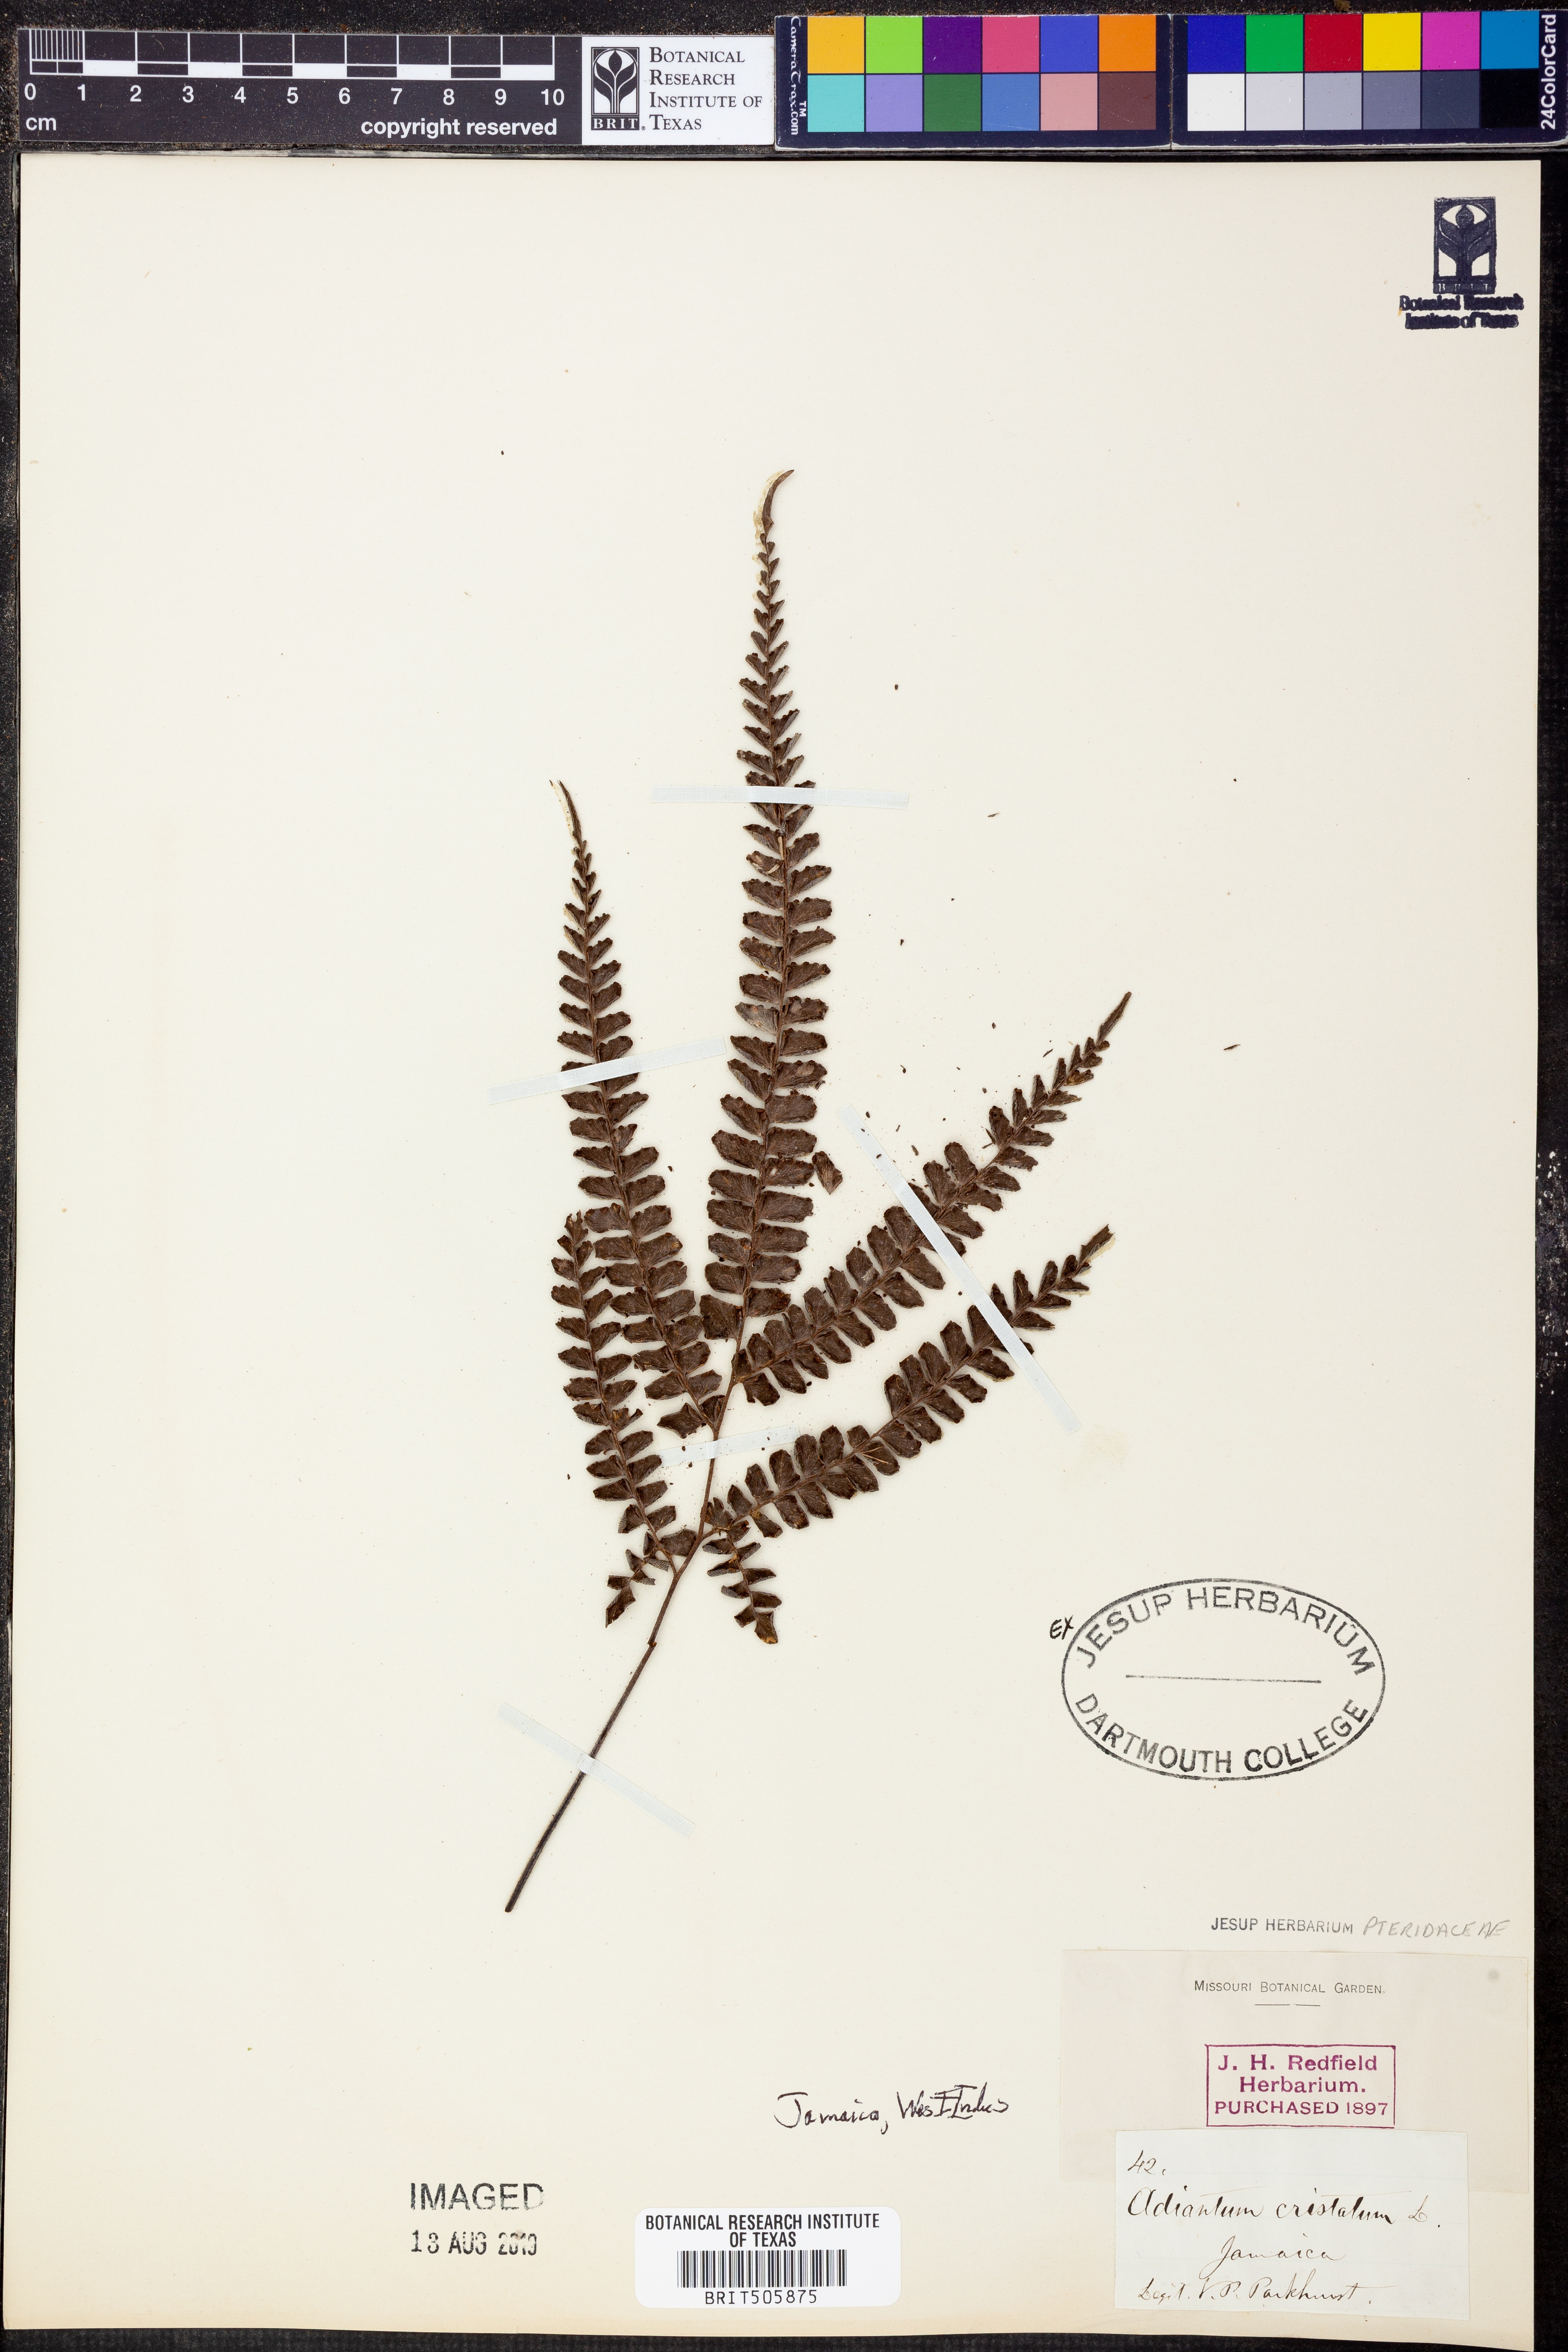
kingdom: Plantae
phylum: Tracheophyta
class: Polypodiopsida
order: Polypodiales
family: Pteridaceae
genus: Adiantum
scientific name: Adiantum pyramidale
